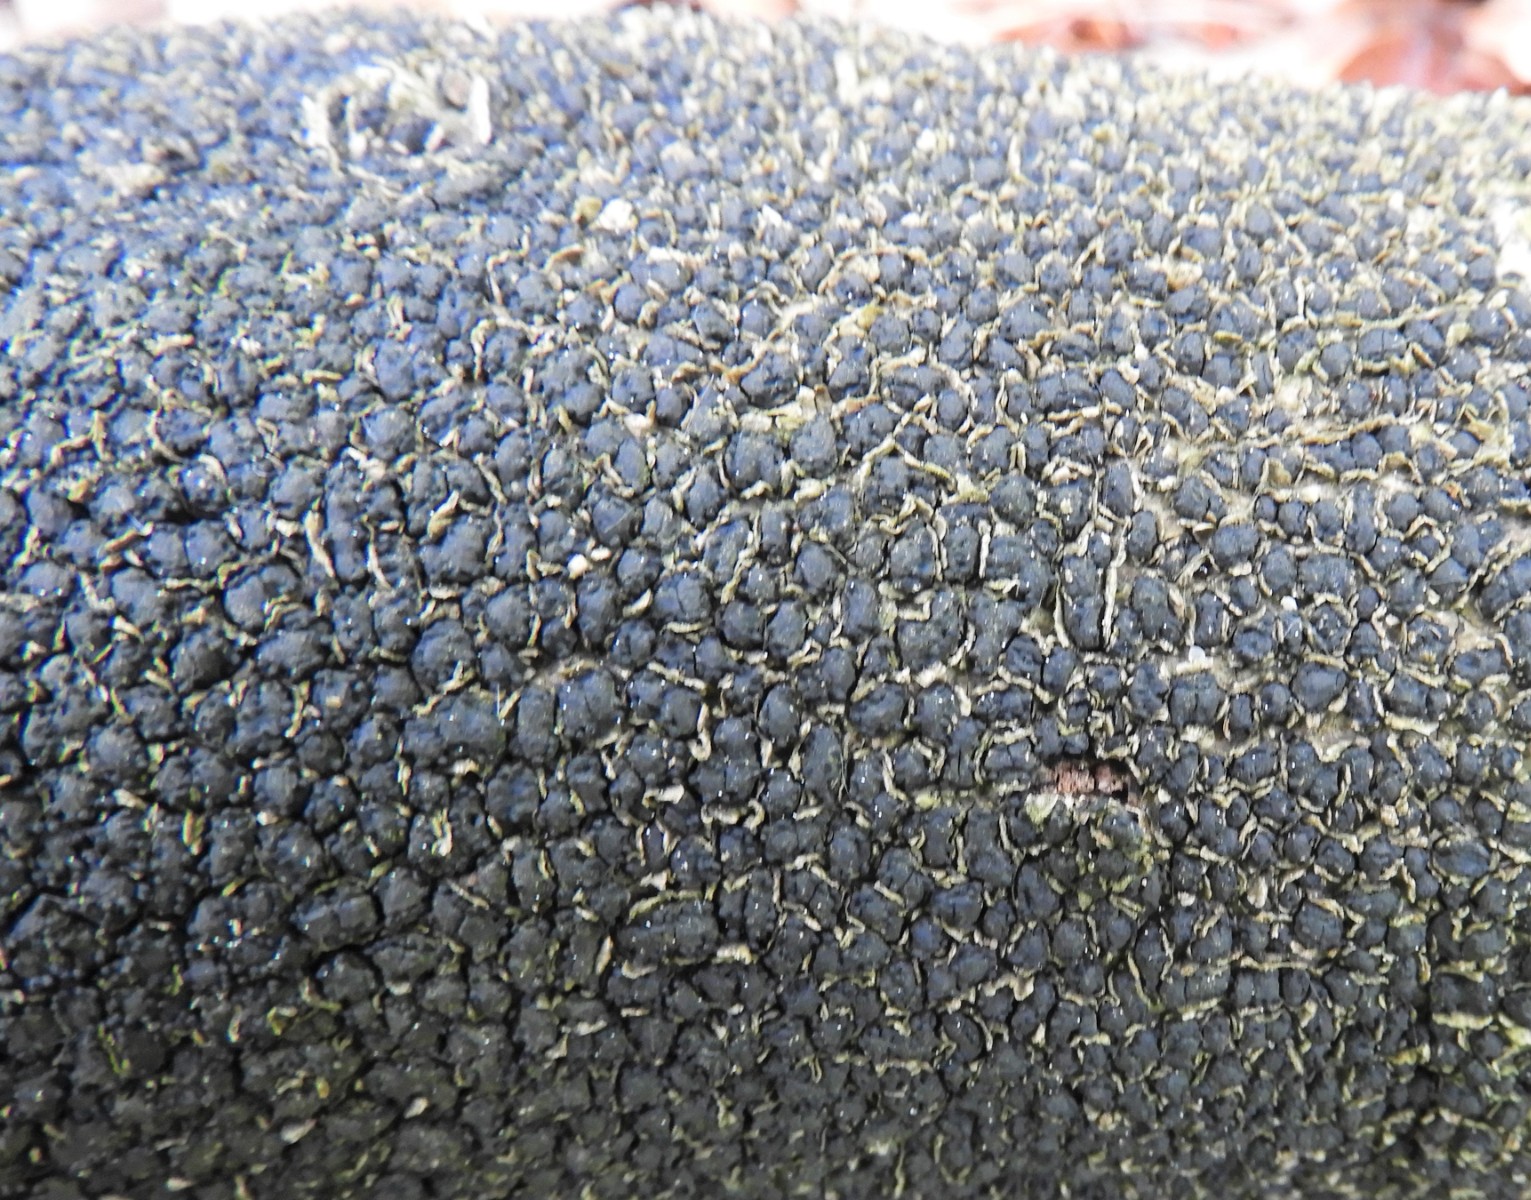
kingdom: Fungi
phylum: Ascomycota
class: Sordariomycetes
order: Xylariales
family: Melogrammataceae
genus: Melogramma
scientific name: Melogramma spiniferum
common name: bøgefod-kulhals
